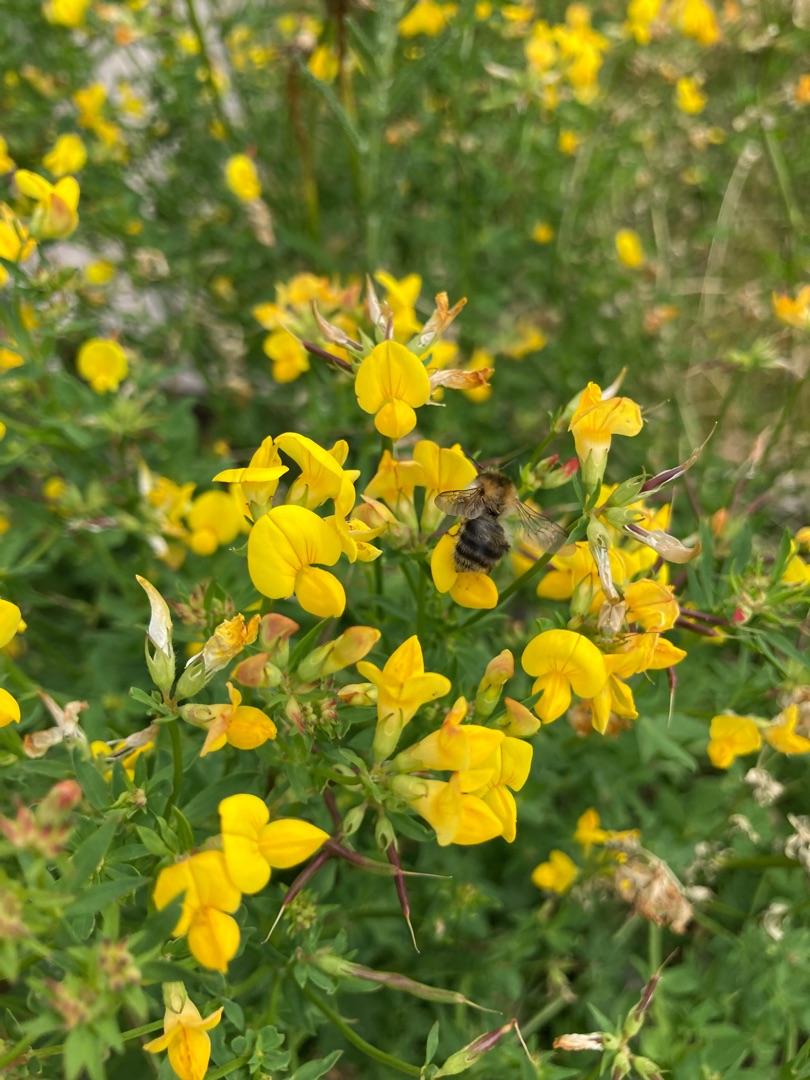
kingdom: Plantae
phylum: Tracheophyta
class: Magnoliopsida
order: Fabales
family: Fabaceae
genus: Lotus
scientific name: Lotus corniculatus
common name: Almindelig kællingetand
